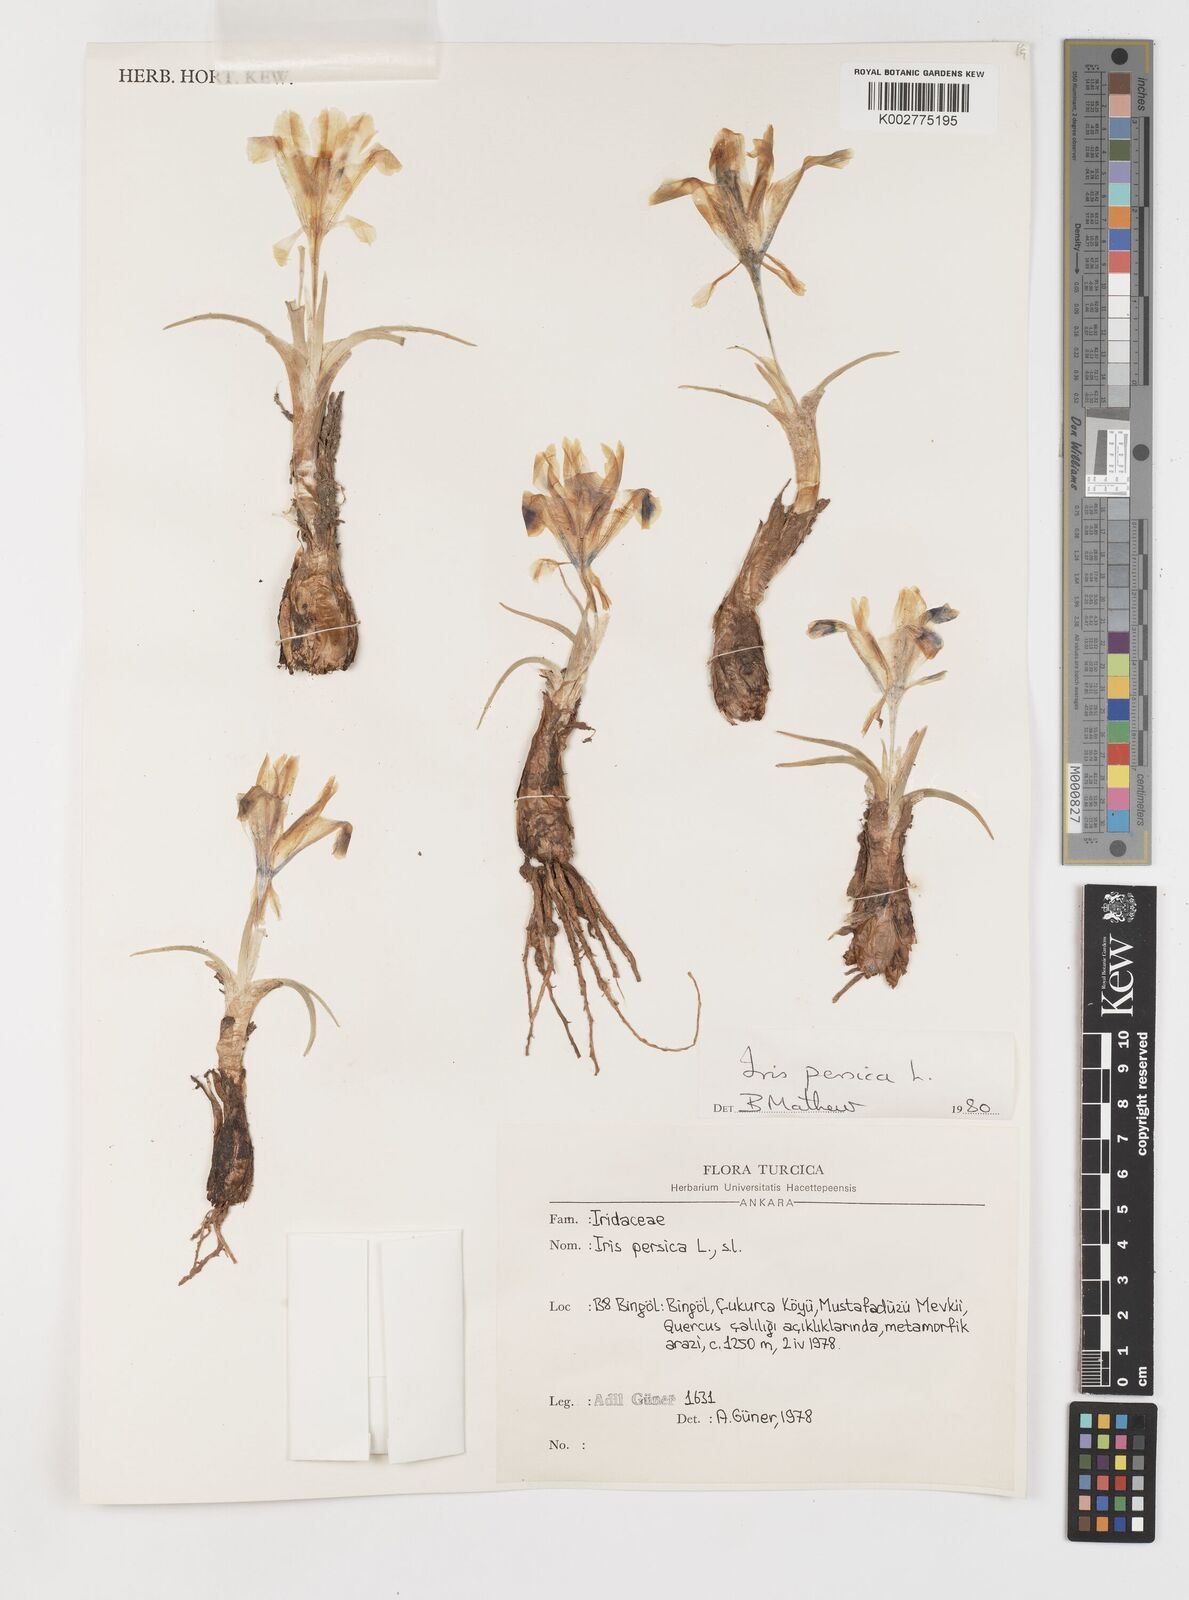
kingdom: Plantae
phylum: Tracheophyta
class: Liliopsida
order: Asparagales
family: Iridaceae
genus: Iris
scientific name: Iris persica
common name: Persian iris
